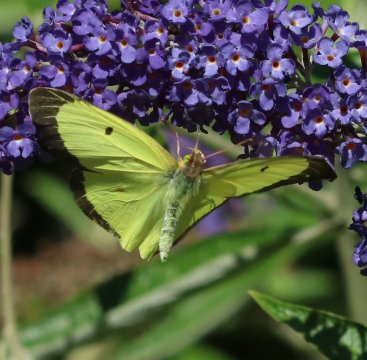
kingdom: Animalia
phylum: Arthropoda
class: Insecta
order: Lepidoptera
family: Pieridae
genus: Colias
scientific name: Colias philodice
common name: Clouded Sulphur
